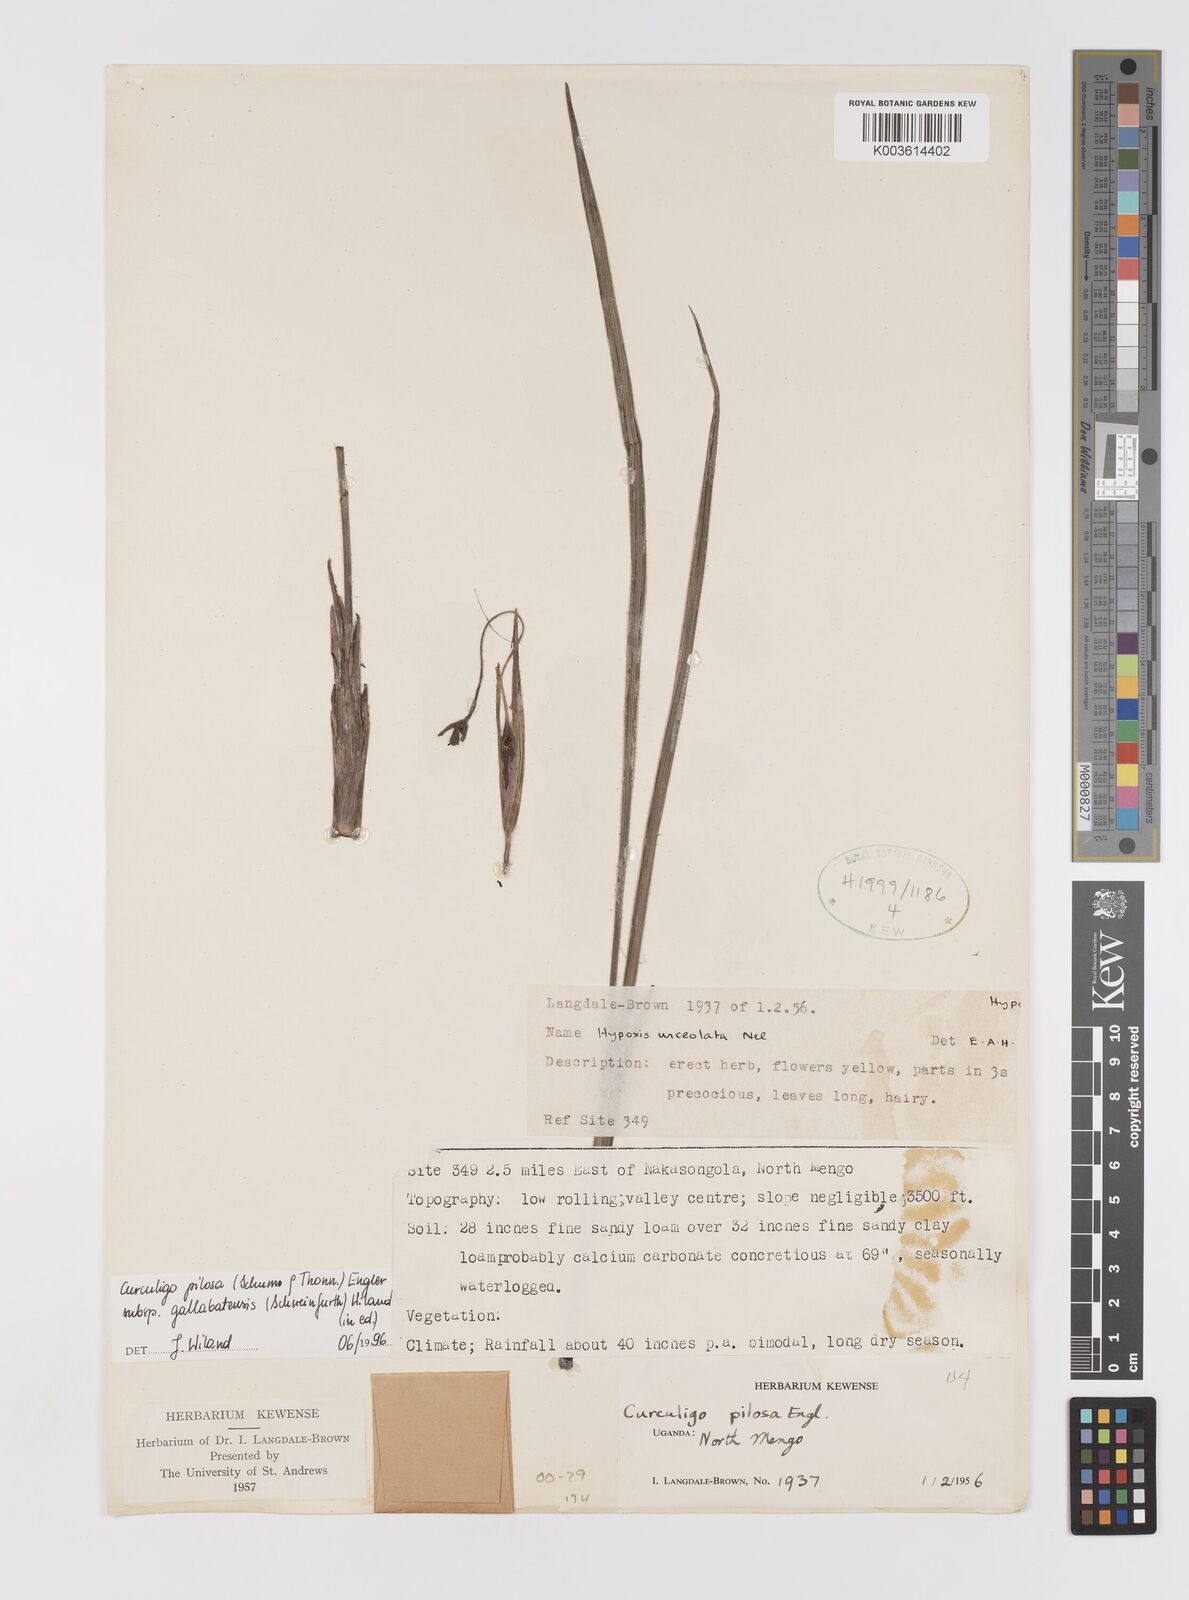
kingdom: Plantae
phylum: Tracheophyta
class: Liliopsida
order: Asparagales
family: Hypoxidaceae
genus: Curculigo
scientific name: Curculigo pilosa
